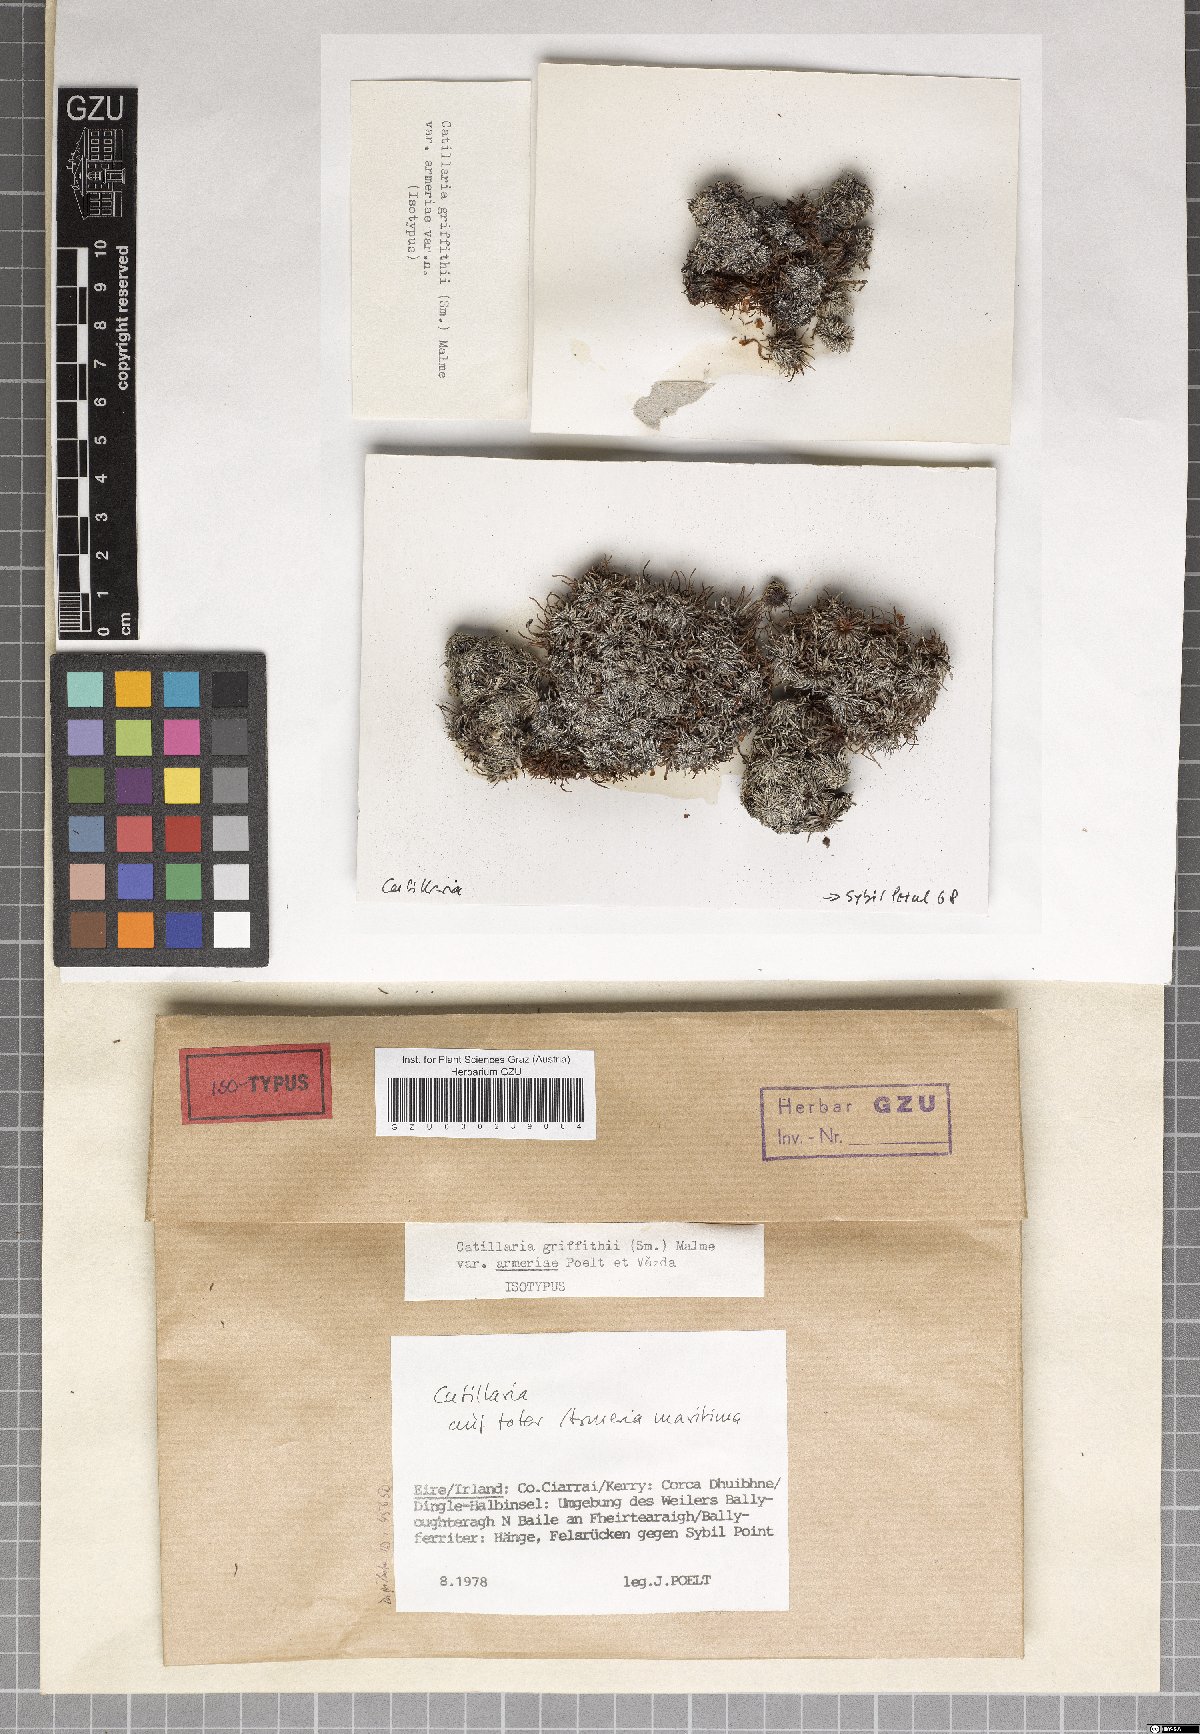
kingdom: Fungi
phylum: Ascomycota
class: Lecanoromycetes
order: Lecanorales
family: Ramalinaceae
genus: Cliostomum
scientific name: Cliostomum griffithii
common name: Multicolored dot lichen
